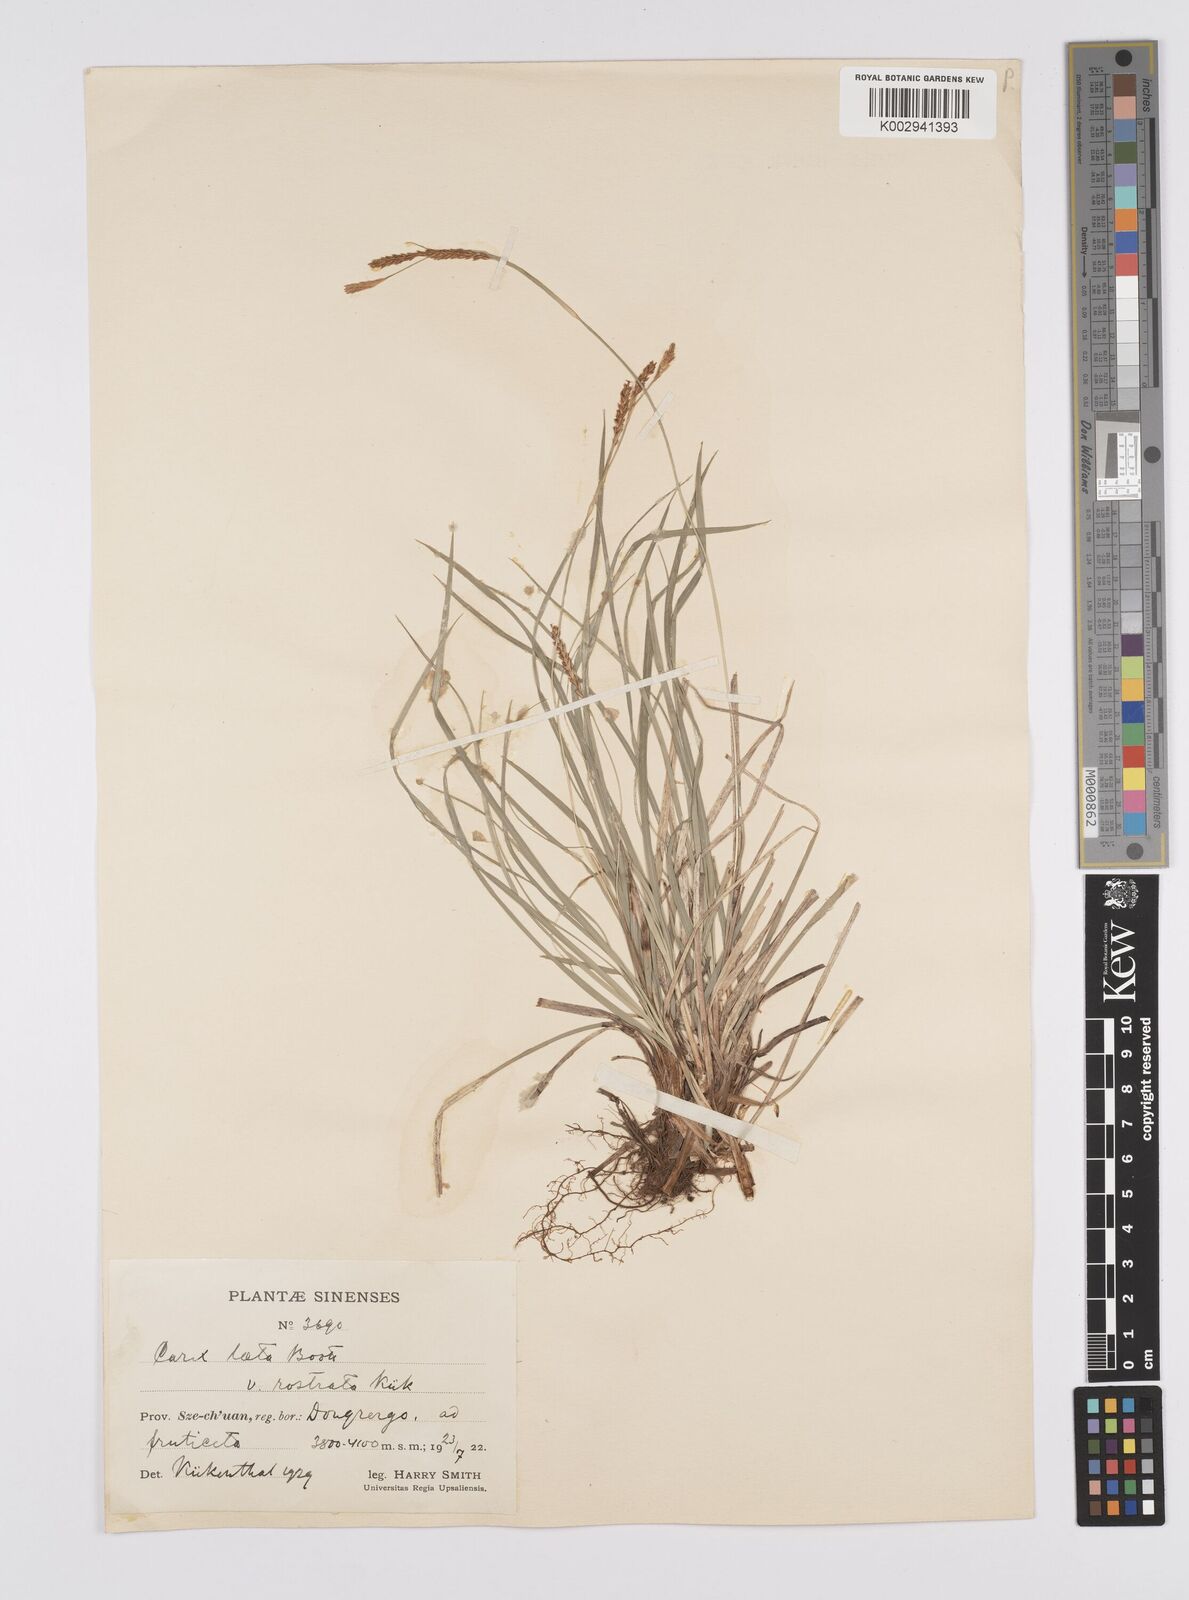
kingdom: Plantae
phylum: Tracheophyta
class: Liliopsida
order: Poales
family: Cyperaceae
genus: Carex
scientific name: Carex laeta
